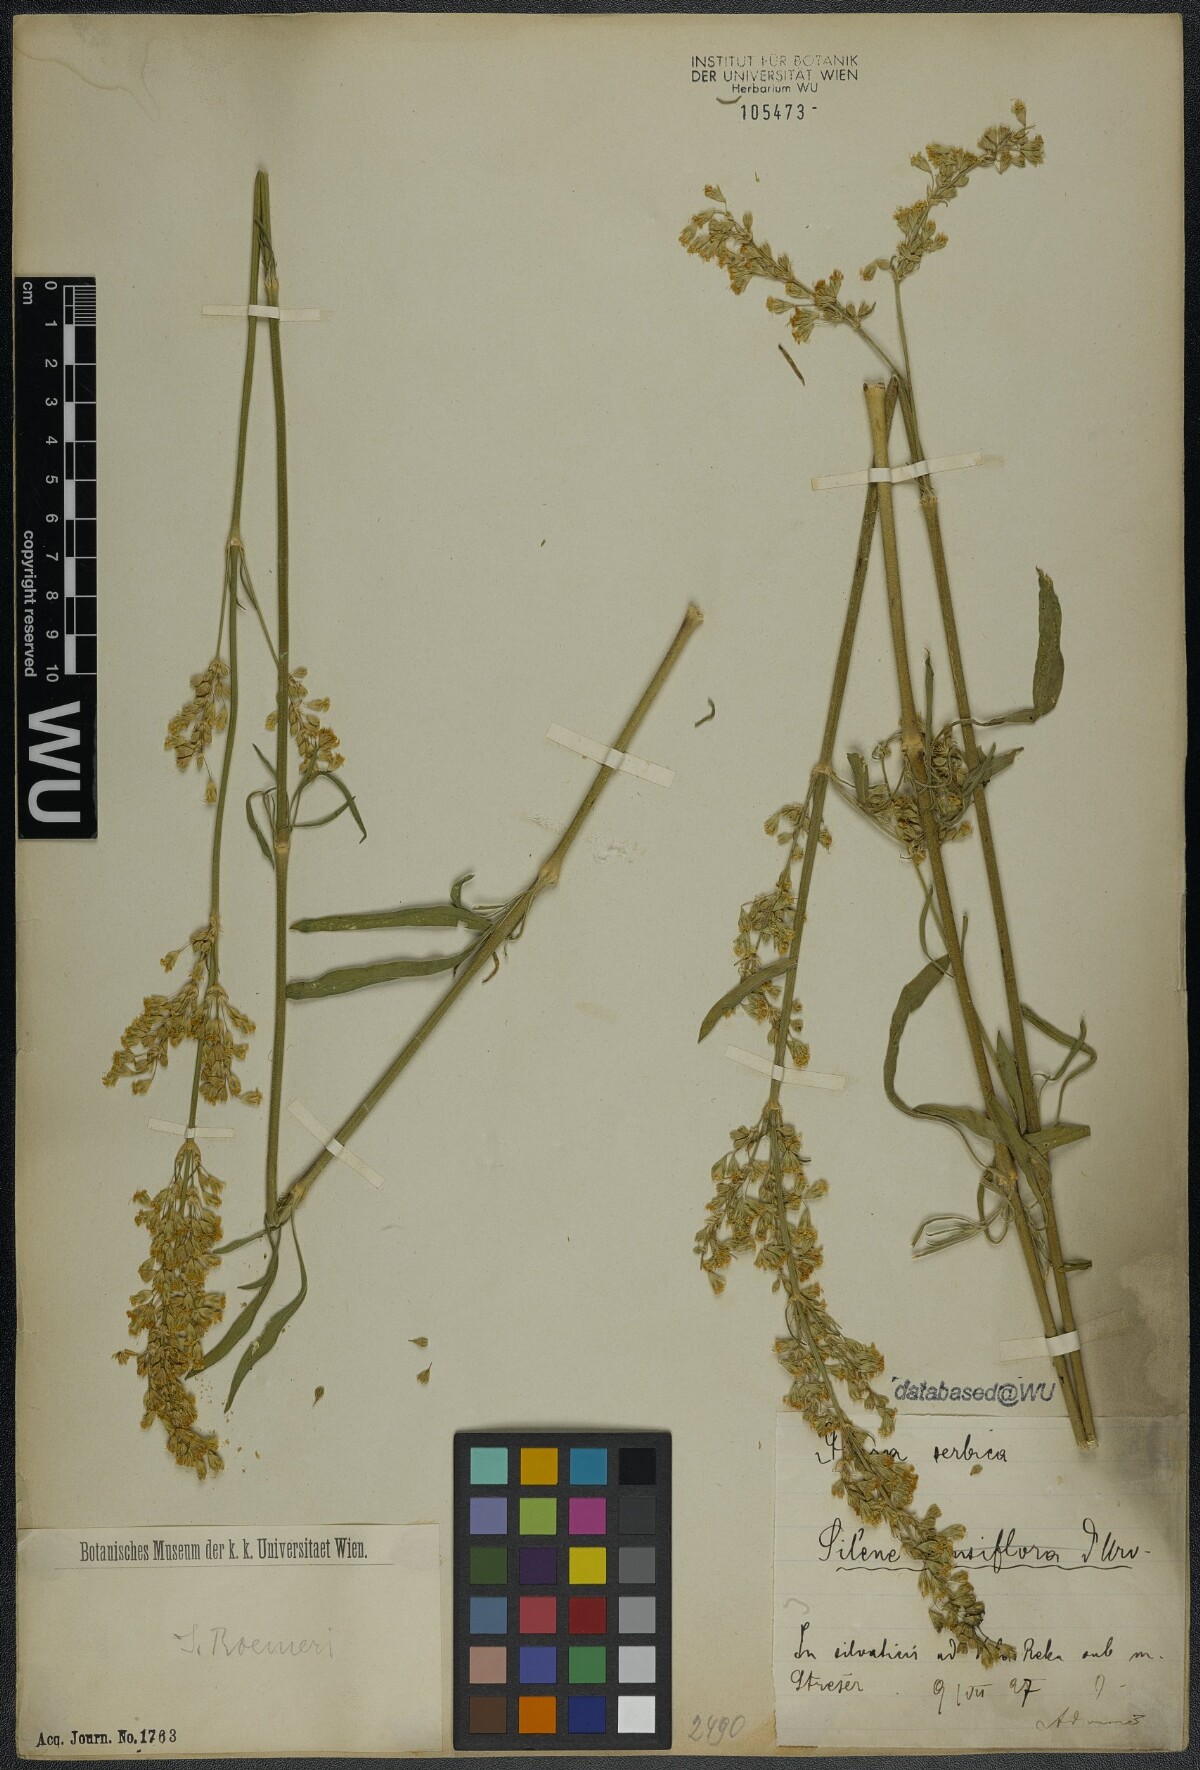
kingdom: Plantae
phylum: Tracheophyta
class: Magnoliopsida
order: Caryophyllales
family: Caryophyllaceae
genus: Silene
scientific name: Silene roemeri
